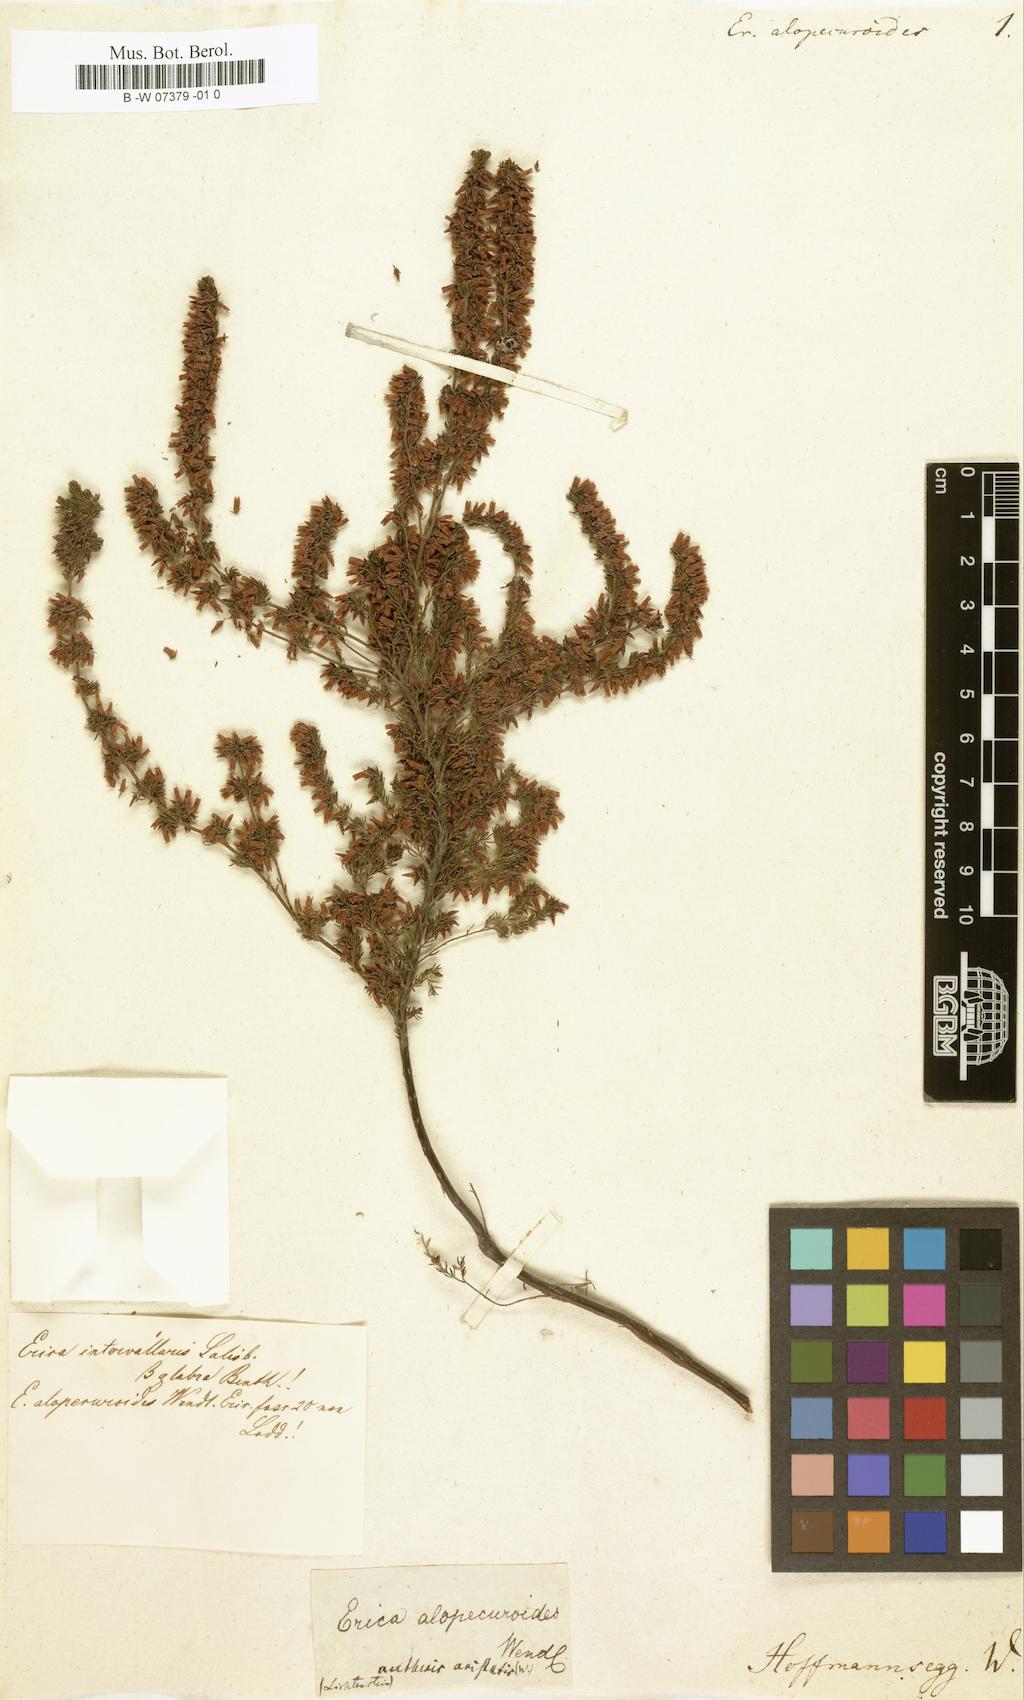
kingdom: Plantae
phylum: Tracheophyta
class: Magnoliopsida
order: Ericales
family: Ericaceae
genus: Erica
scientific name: Erica
